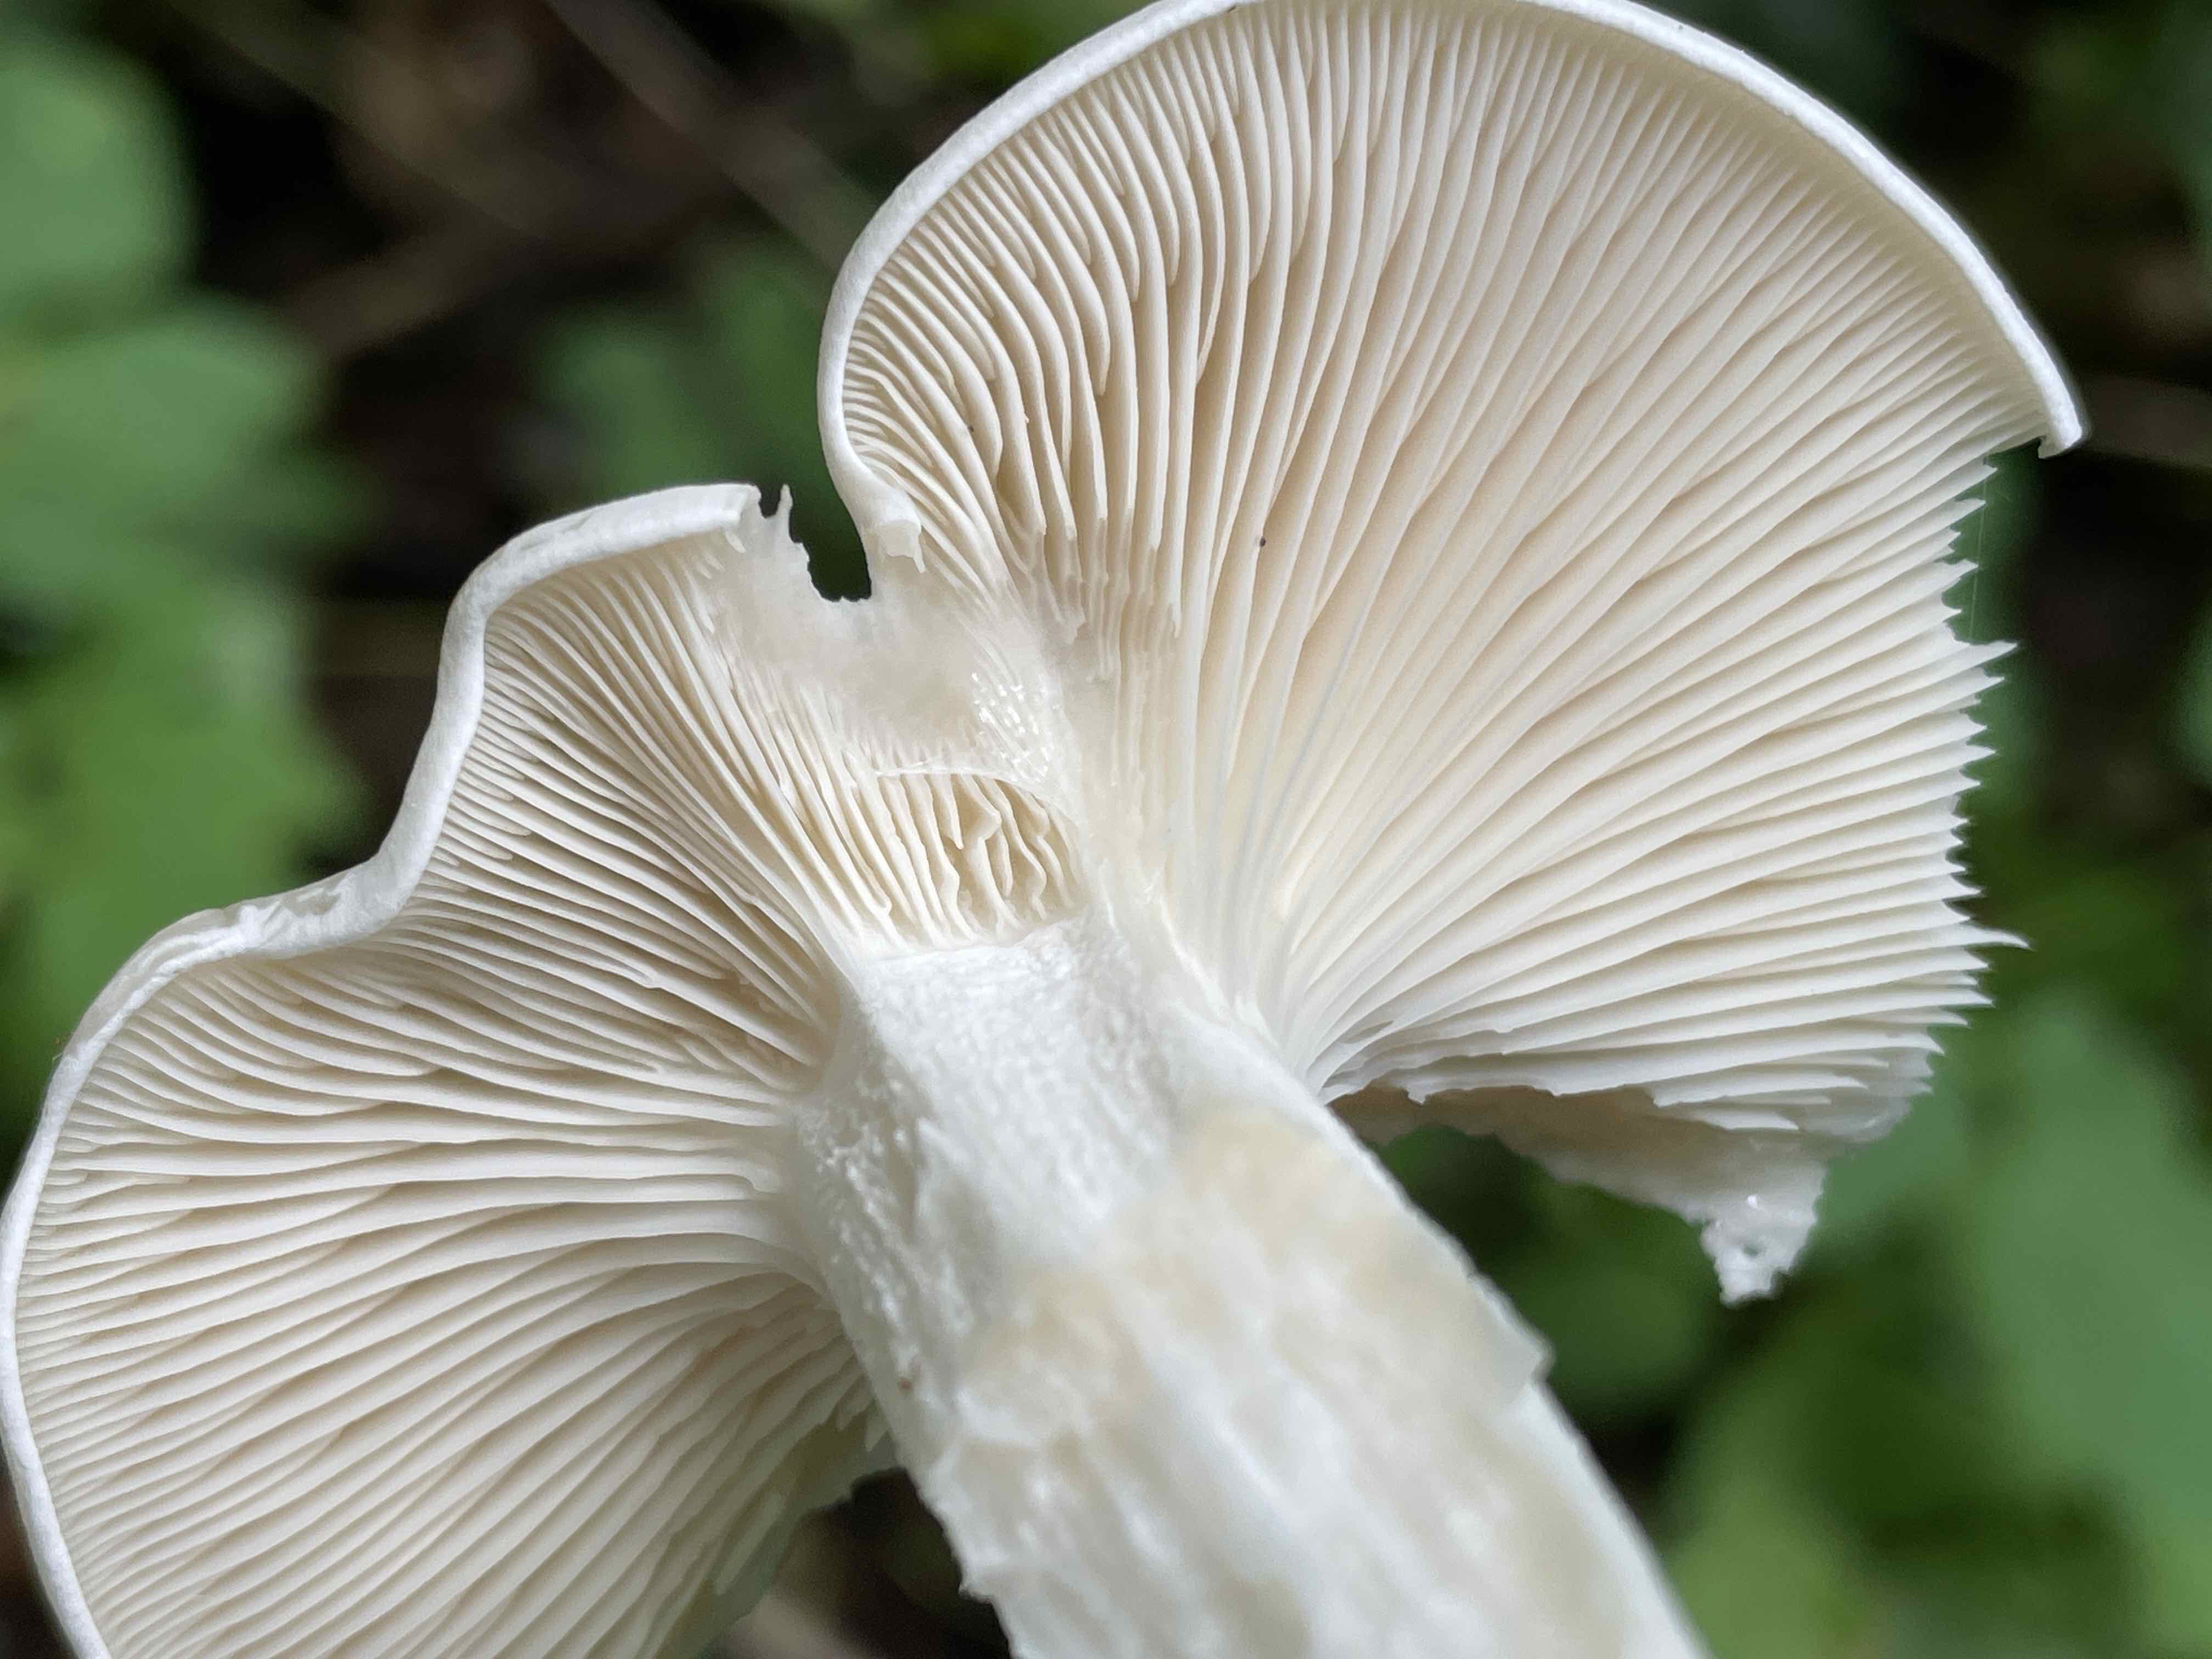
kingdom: Fungi
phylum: Basidiomycota
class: Agaricomycetes
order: Agaricales
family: Tricholomataceae
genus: Leucocybe
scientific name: Leucocybe connata
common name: knippe-tragthat
